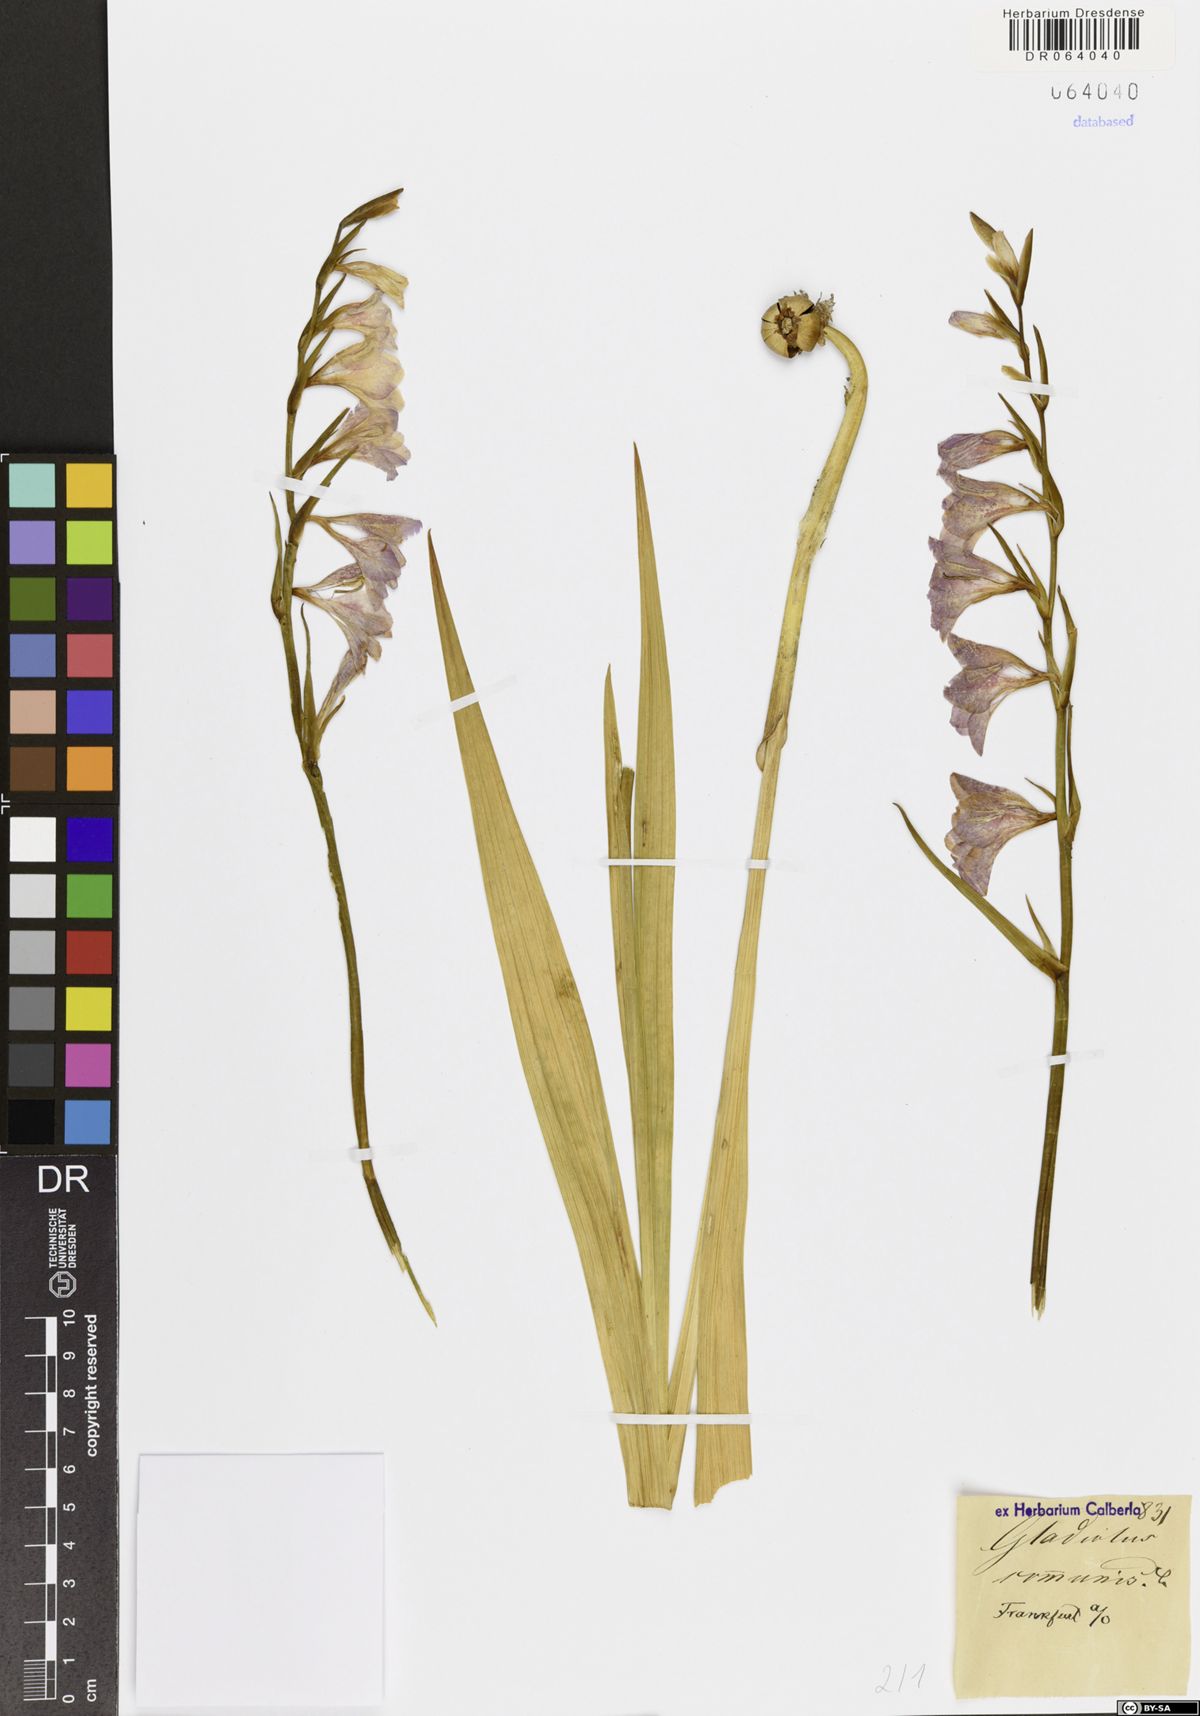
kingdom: Plantae
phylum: Tracheophyta
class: Liliopsida
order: Asparagales
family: Iridaceae
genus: Gladiolus
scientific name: Gladiolus communis
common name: Eastern gladiolus
